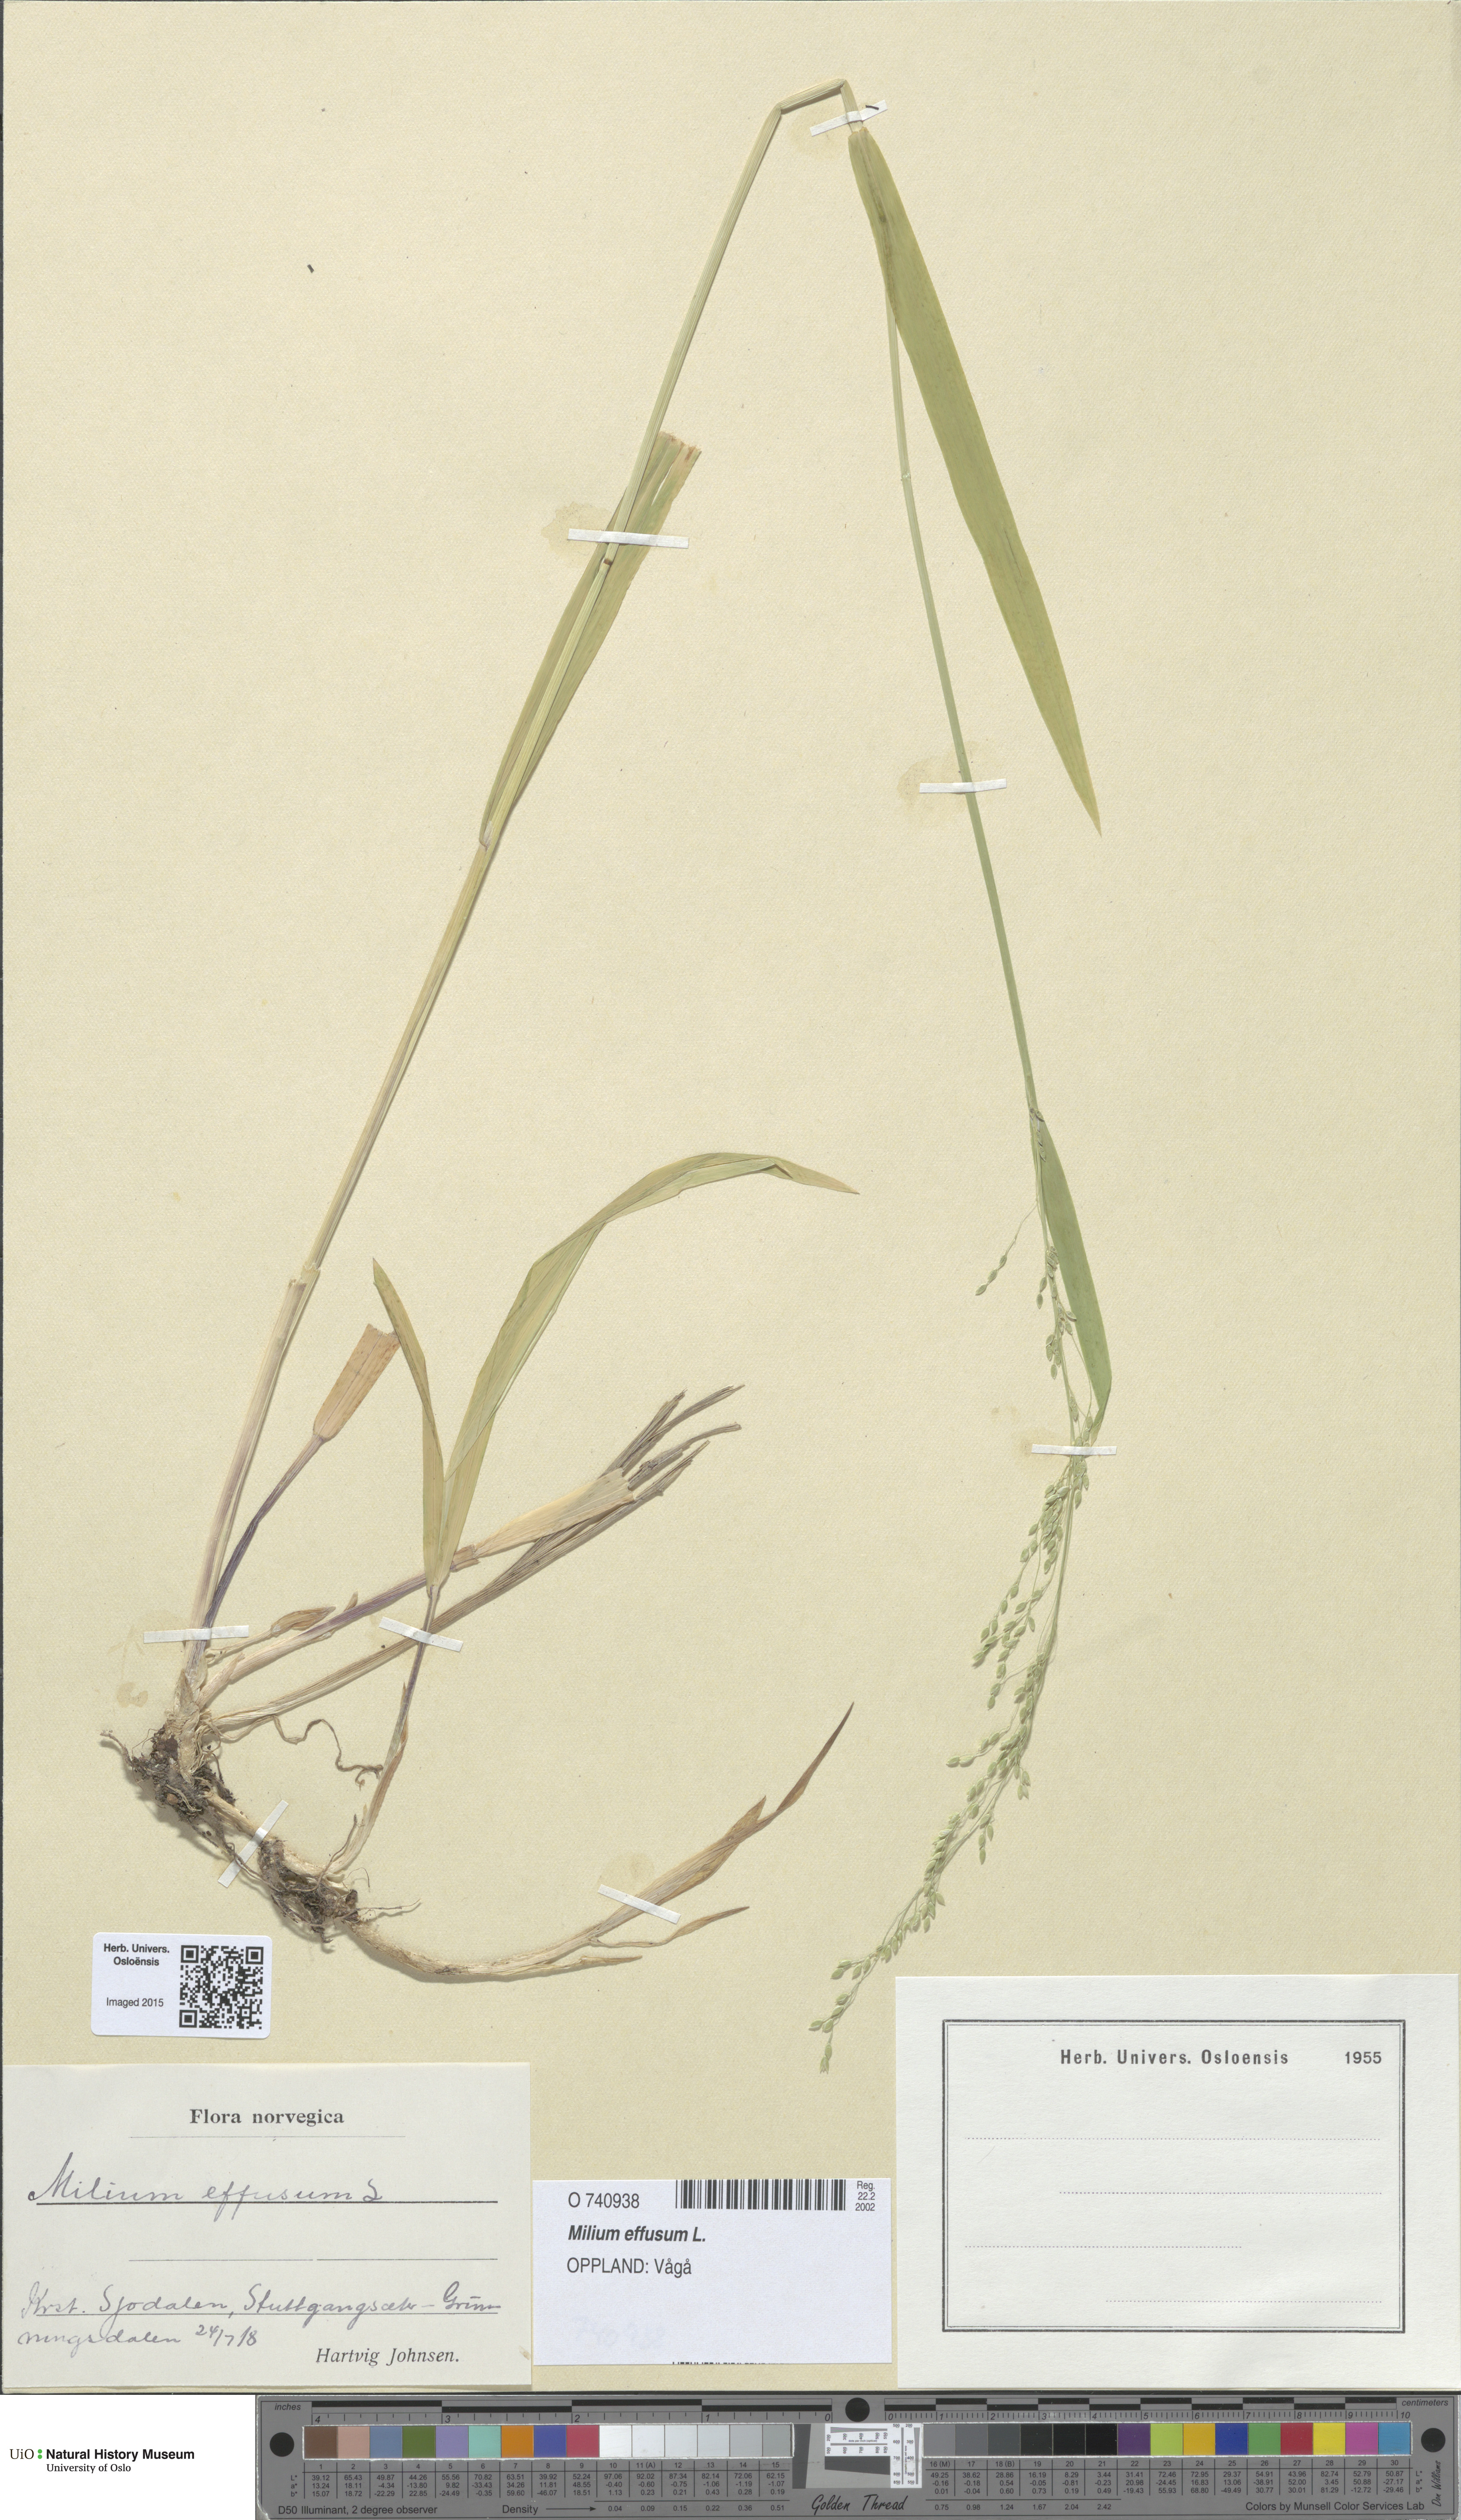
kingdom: Plantae
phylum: Tracheophyta
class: Liliopsida
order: Poales
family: Poaceae
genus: Milium
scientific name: Milium effusum
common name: Wood millet
